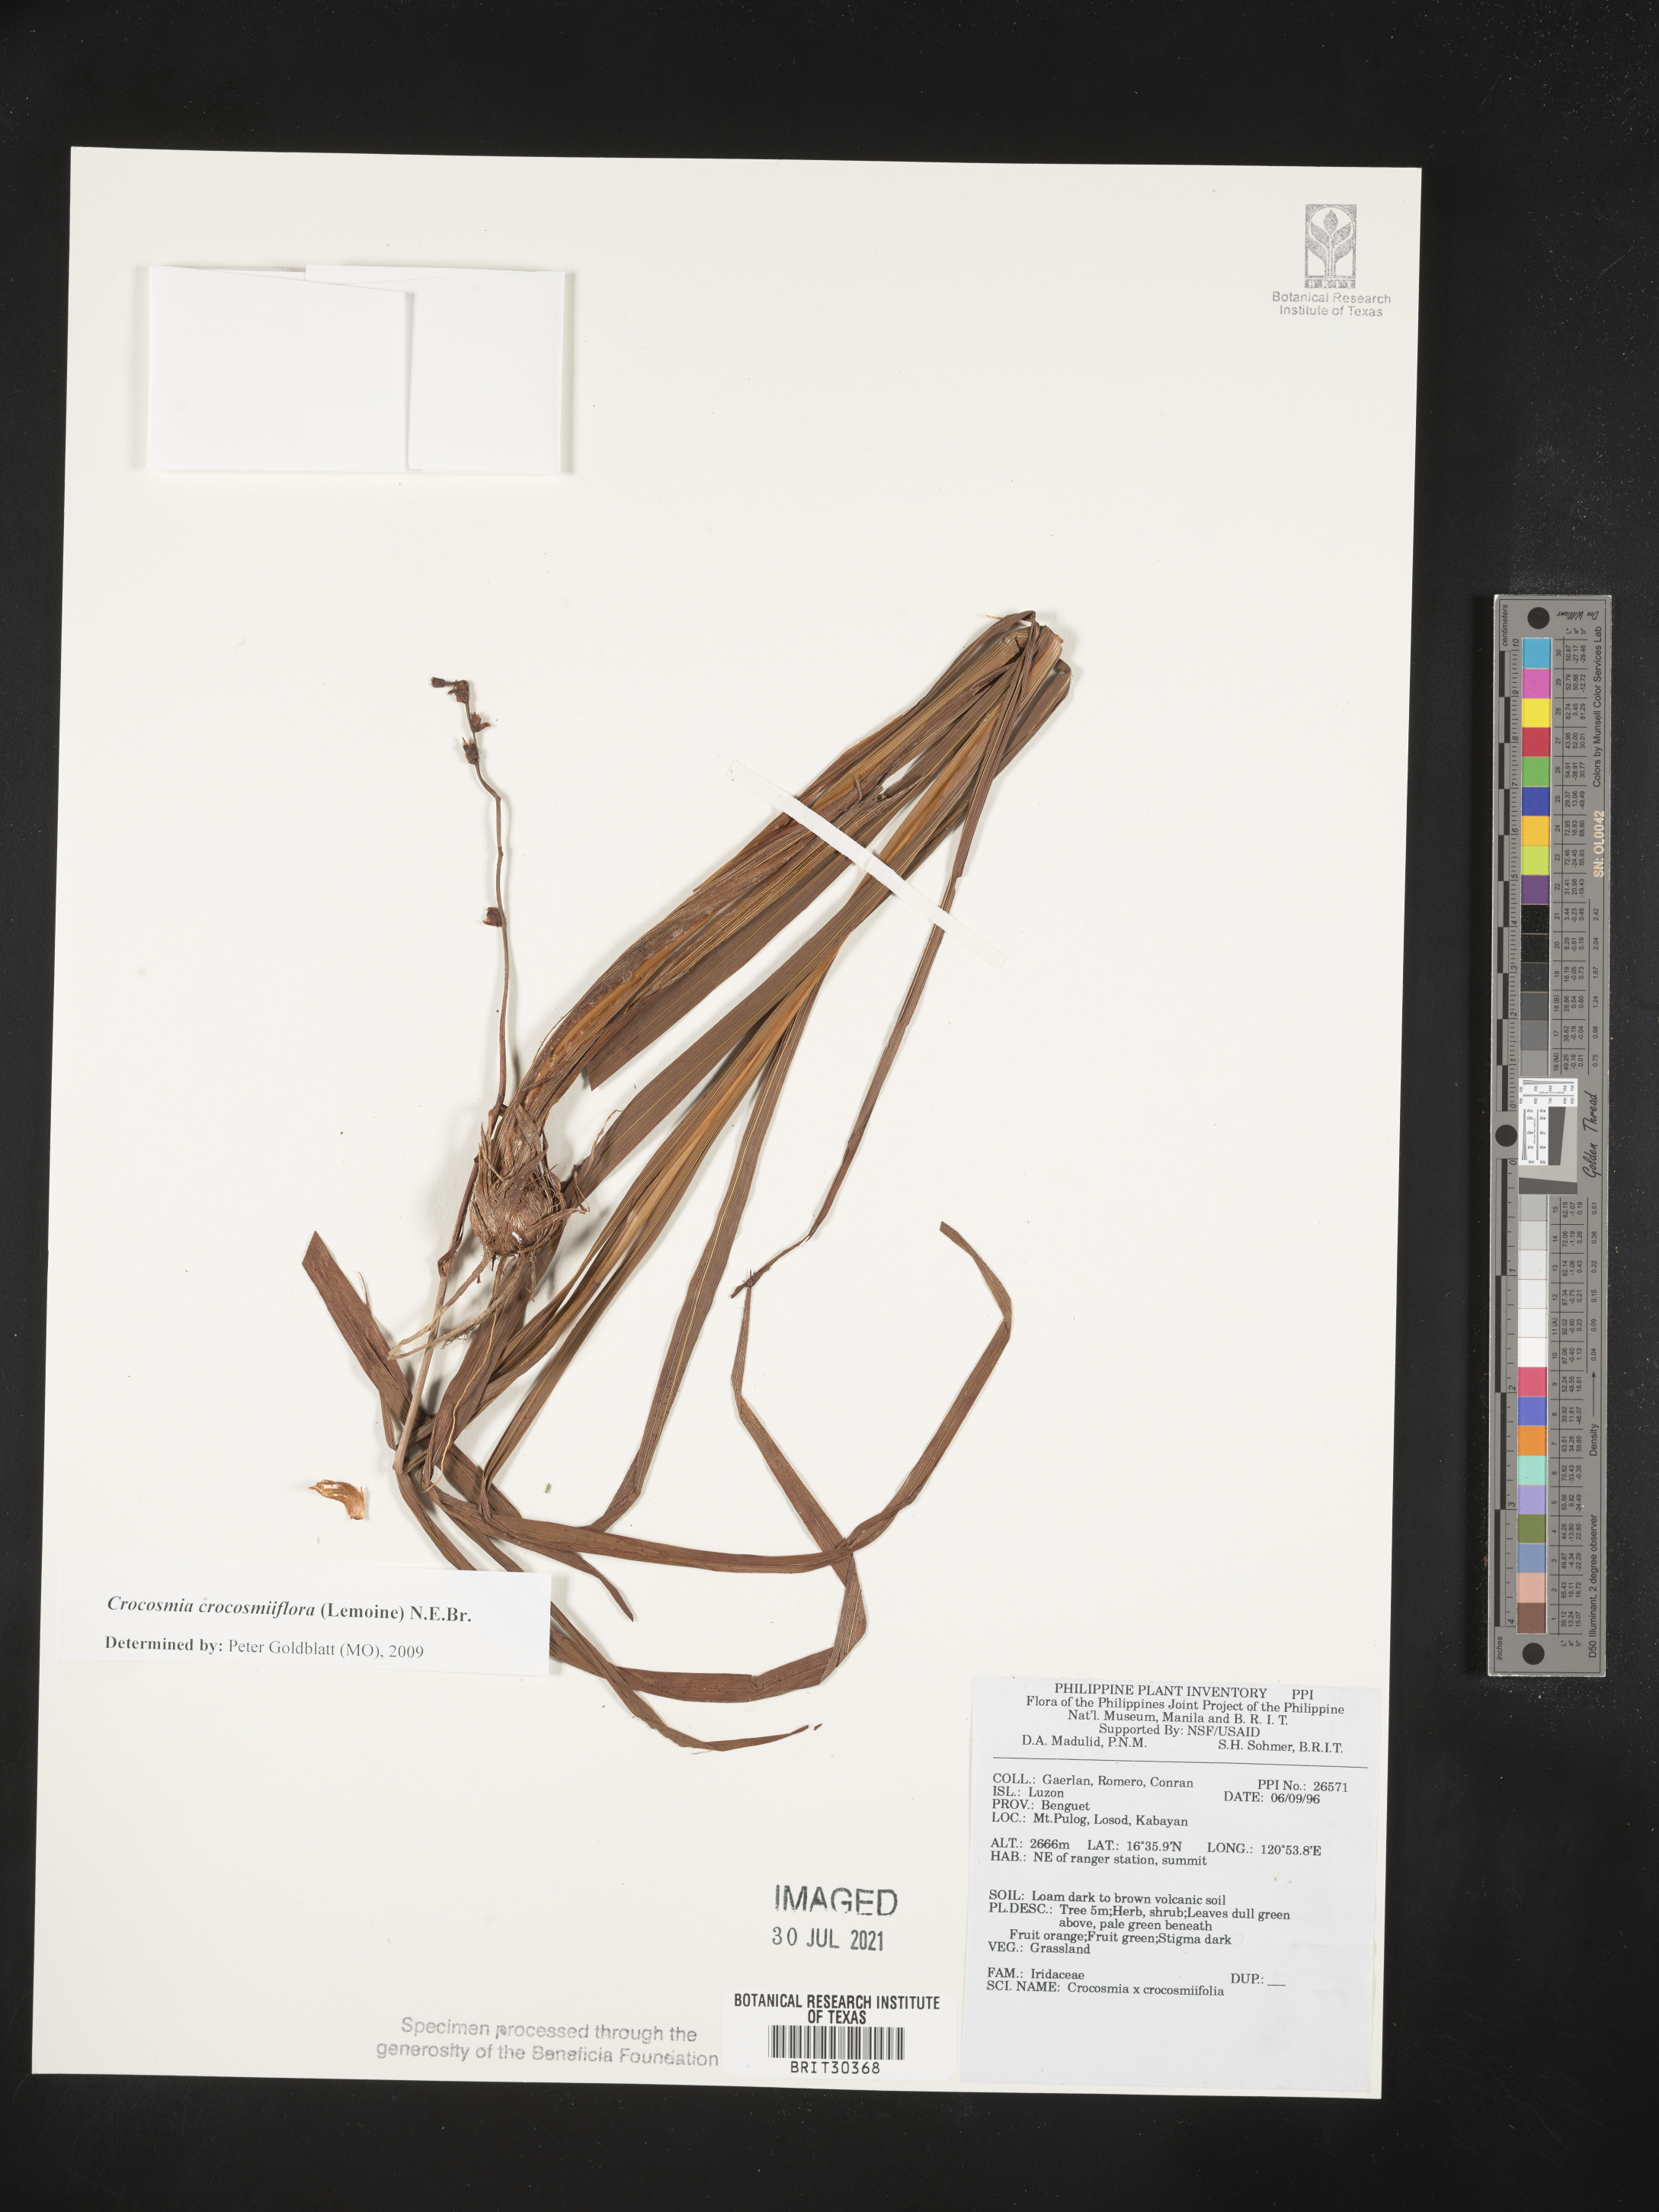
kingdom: Plantae
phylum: Tracheophyta
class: Liliopsida
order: Asparagales
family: Iridaceae
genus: Crocosmia
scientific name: Crocosmia crocosmiiflora
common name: Montbretia
